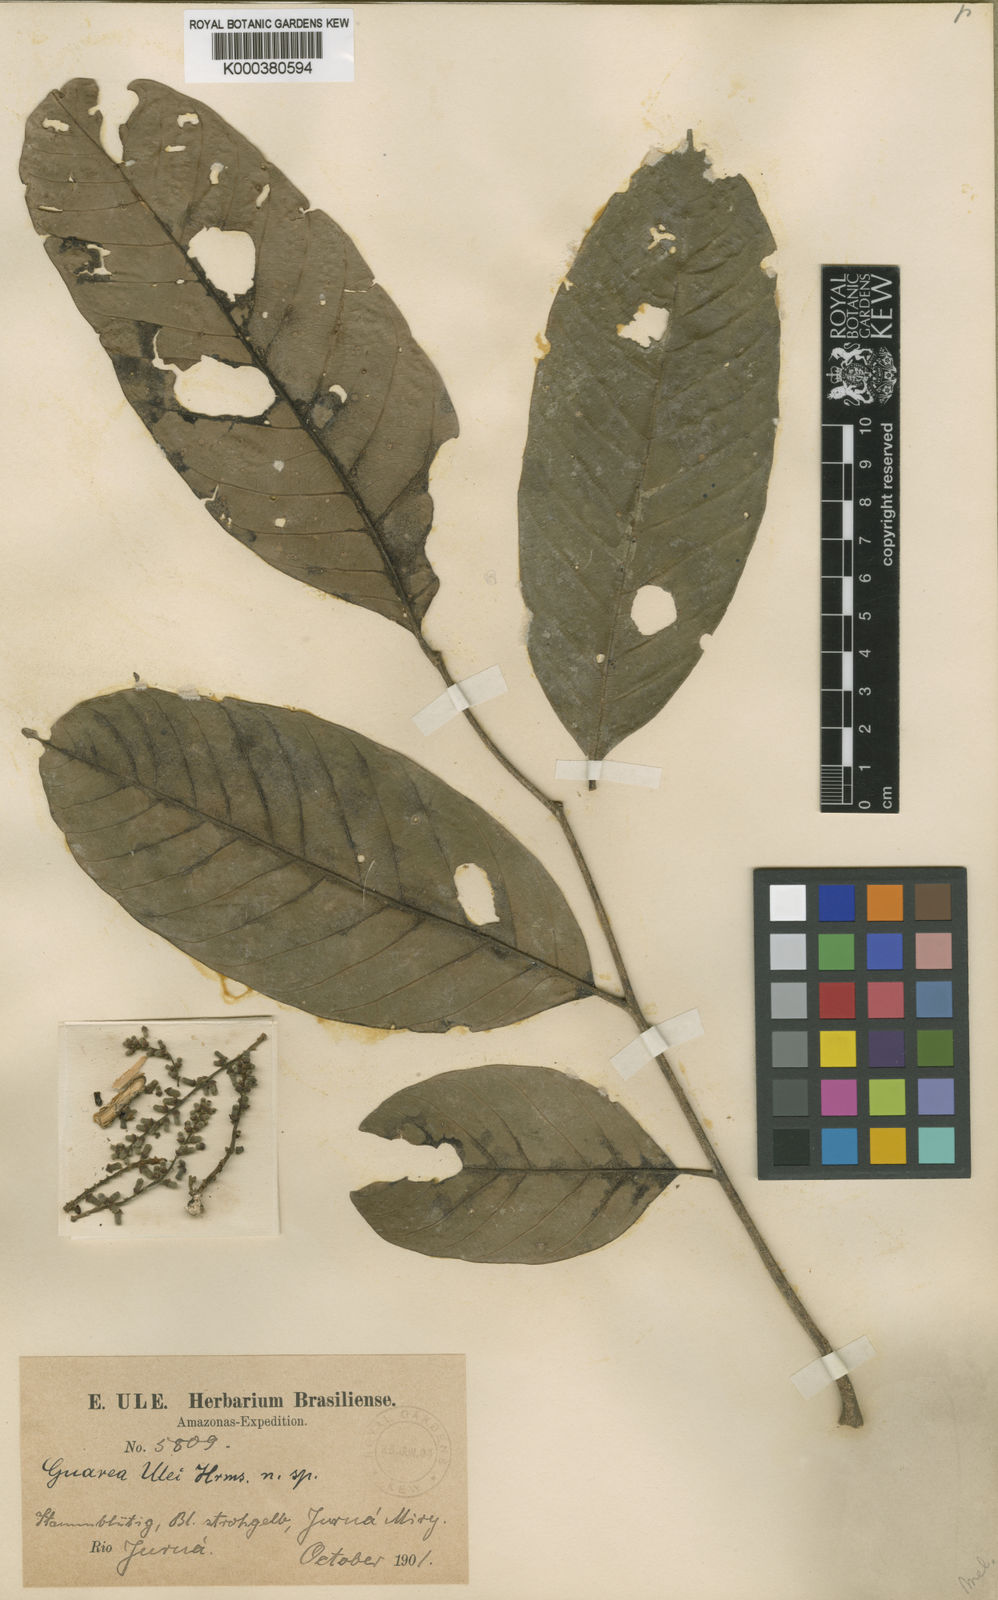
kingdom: Plantae
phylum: Tracheophyta
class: Magnoliopsida
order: Sapindales
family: Meliaceae
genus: Guarea
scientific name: Guarea pubescens
